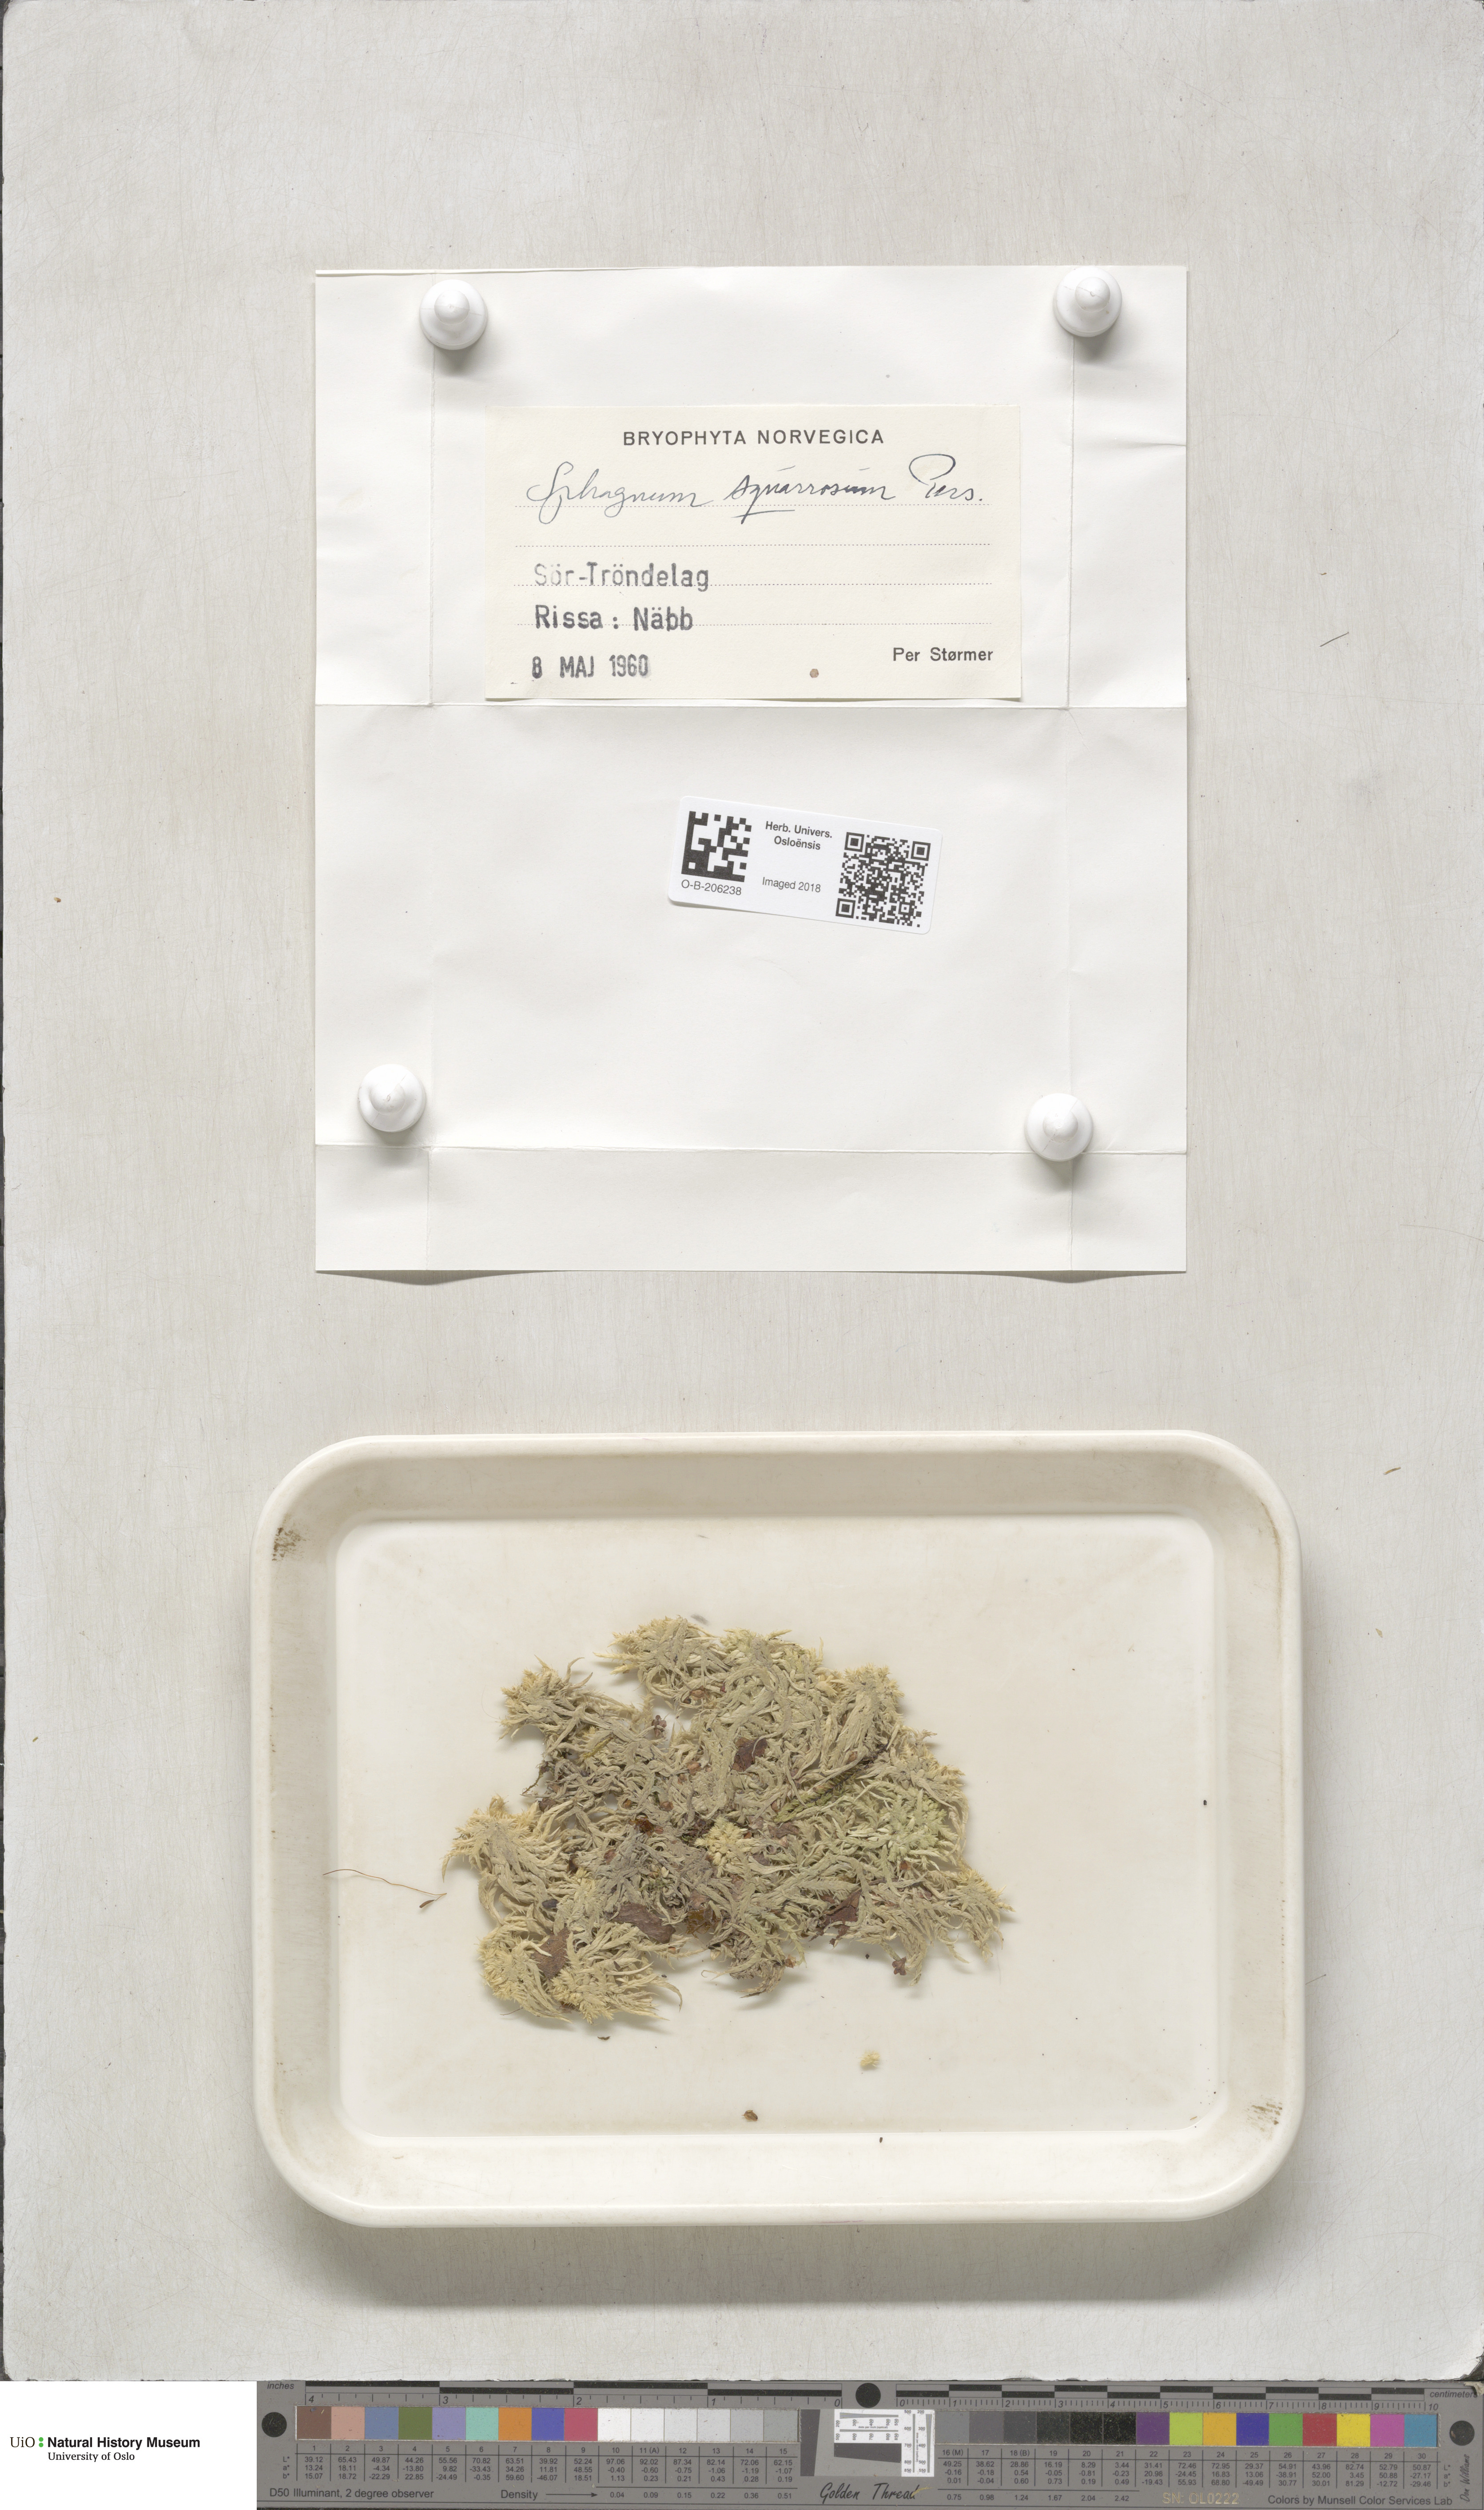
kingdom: Plantae
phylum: Bryophyta
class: Sphagnopsida
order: Sphagnales
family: Sphagnaceae
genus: Sphagnum
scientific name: Sphagnum squarrosum
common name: Shaggy peat moss
